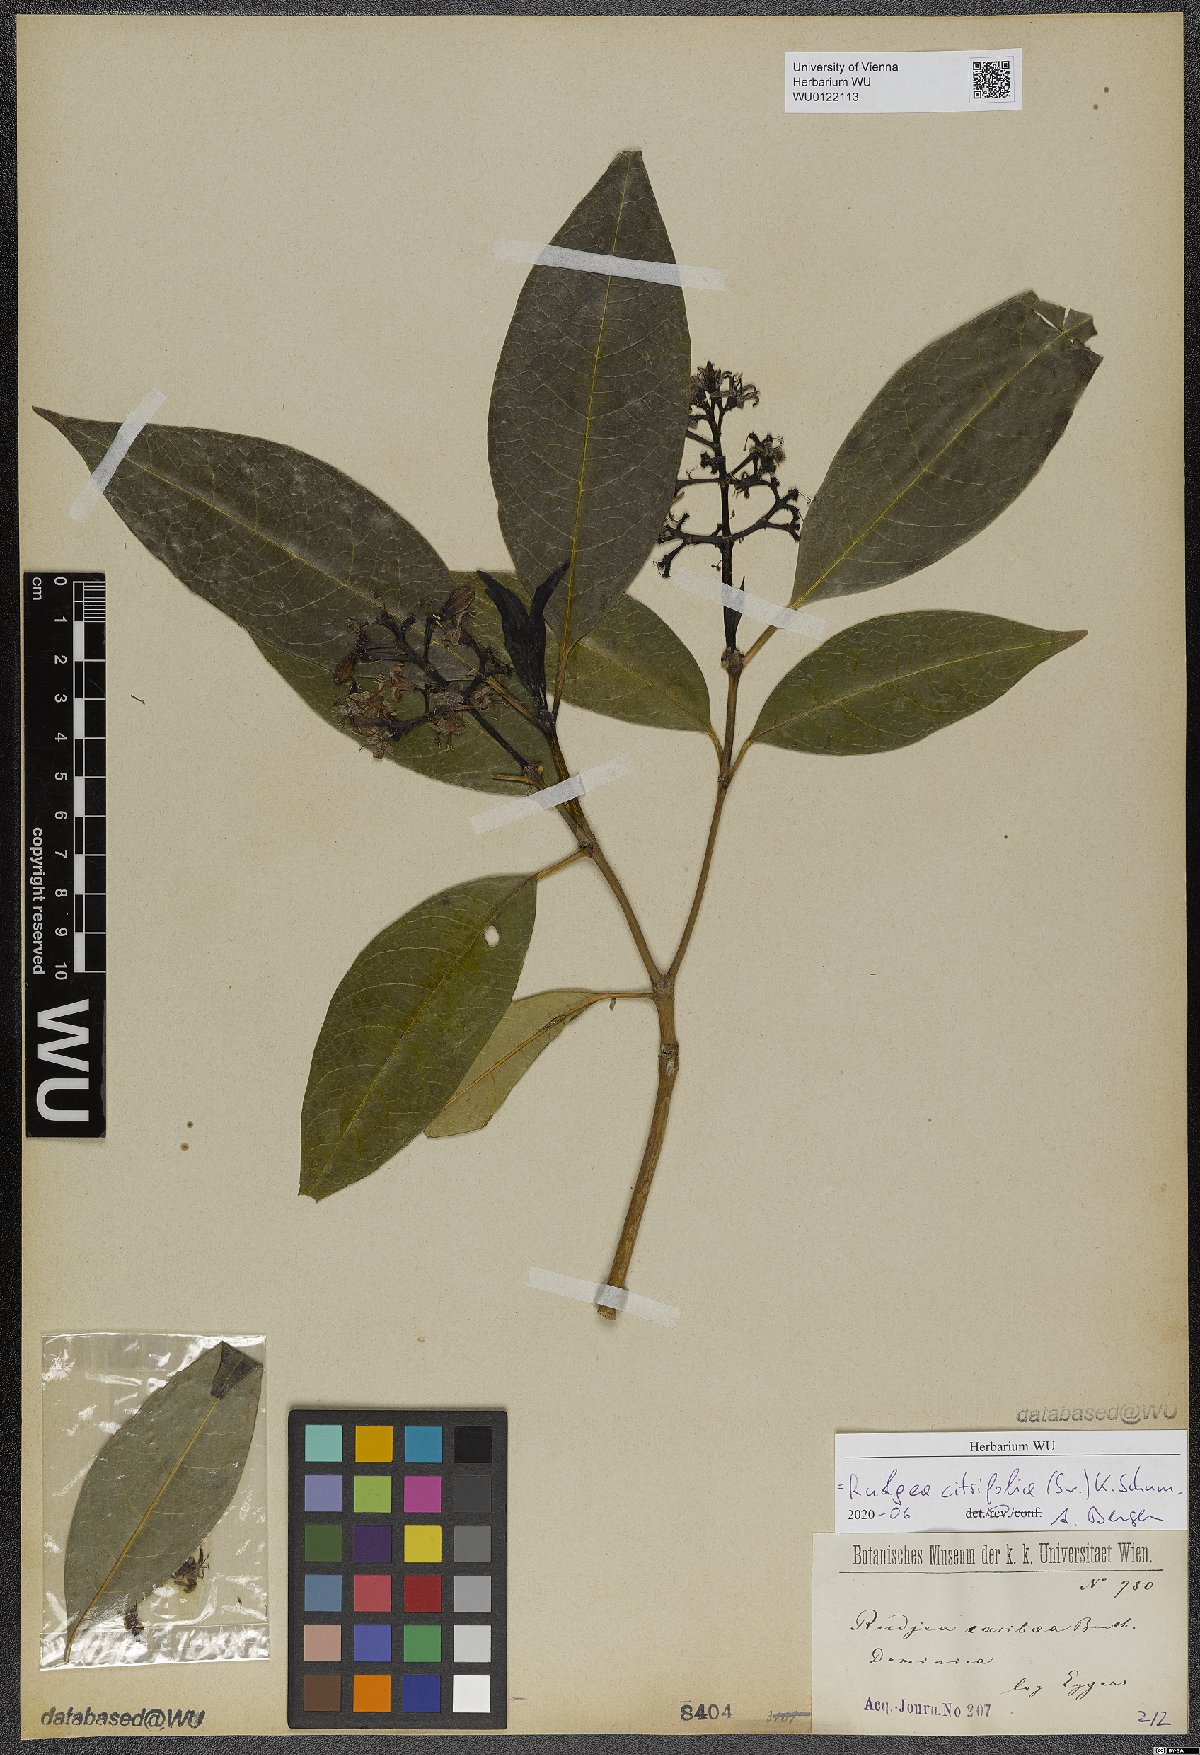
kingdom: Plantae
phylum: Tracheophyta
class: Magnoliopsida
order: Gentianales
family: Rubiaceae
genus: Rudgea
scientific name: Rudgea citrifolia
